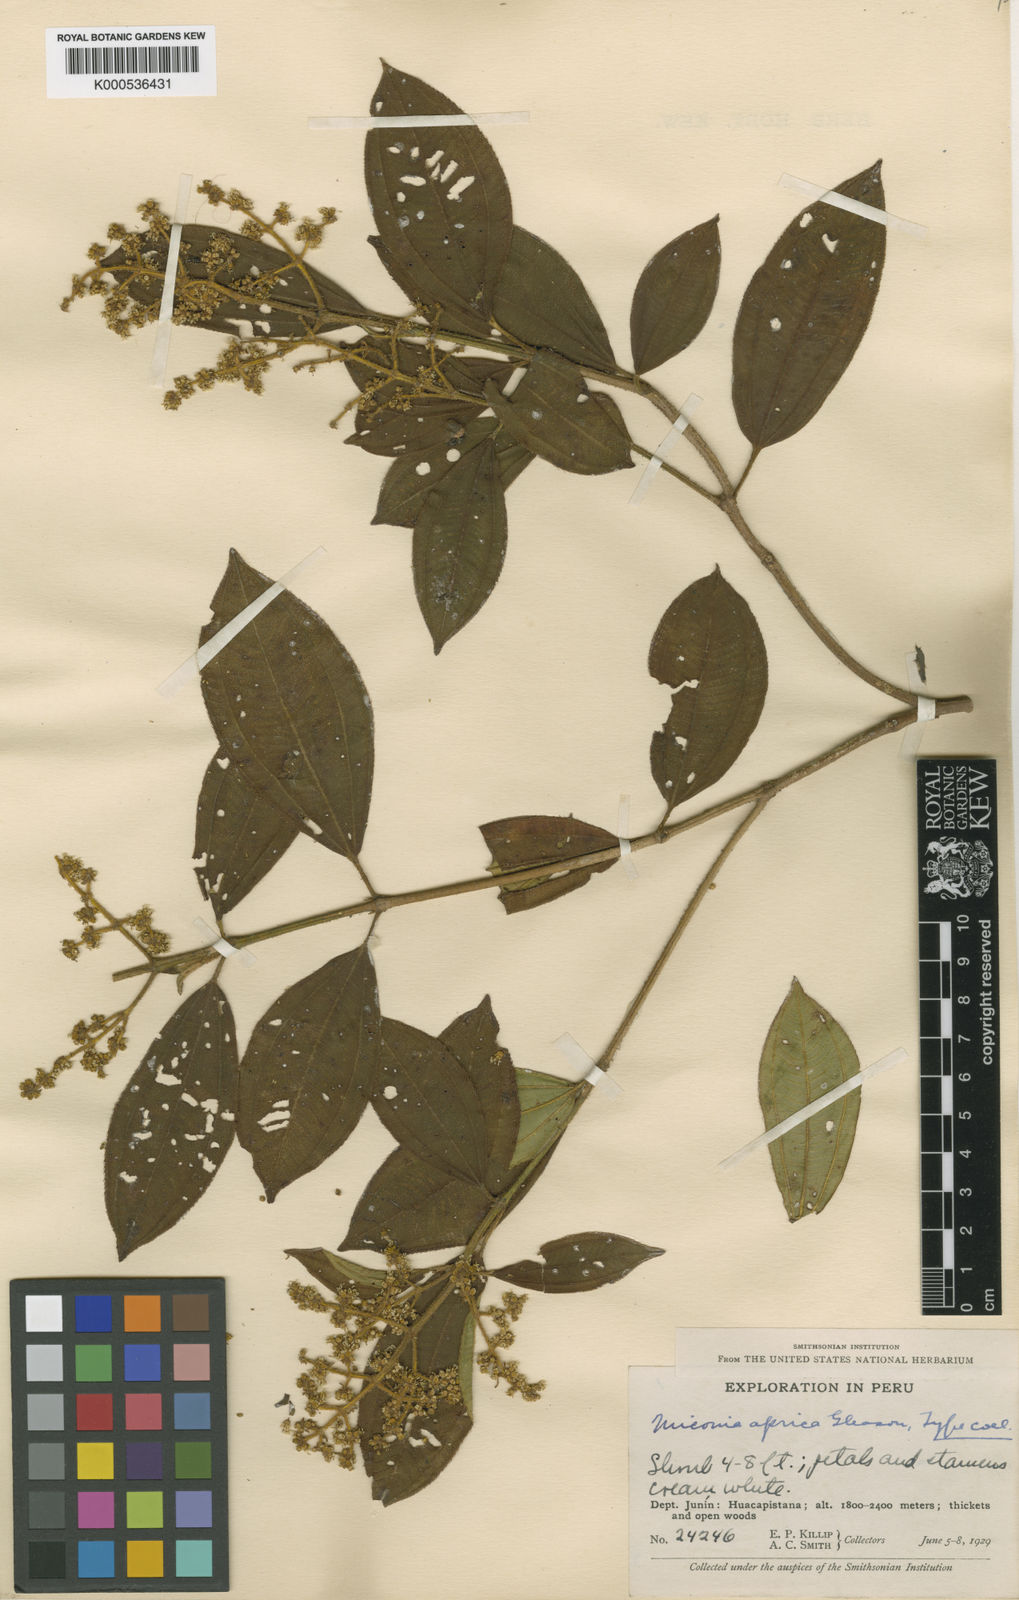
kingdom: Plantae
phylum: Tracheophyta
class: Magnoliopsida
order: Myrtales
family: Melastomataceae
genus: Miconia
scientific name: Miconia aprica
